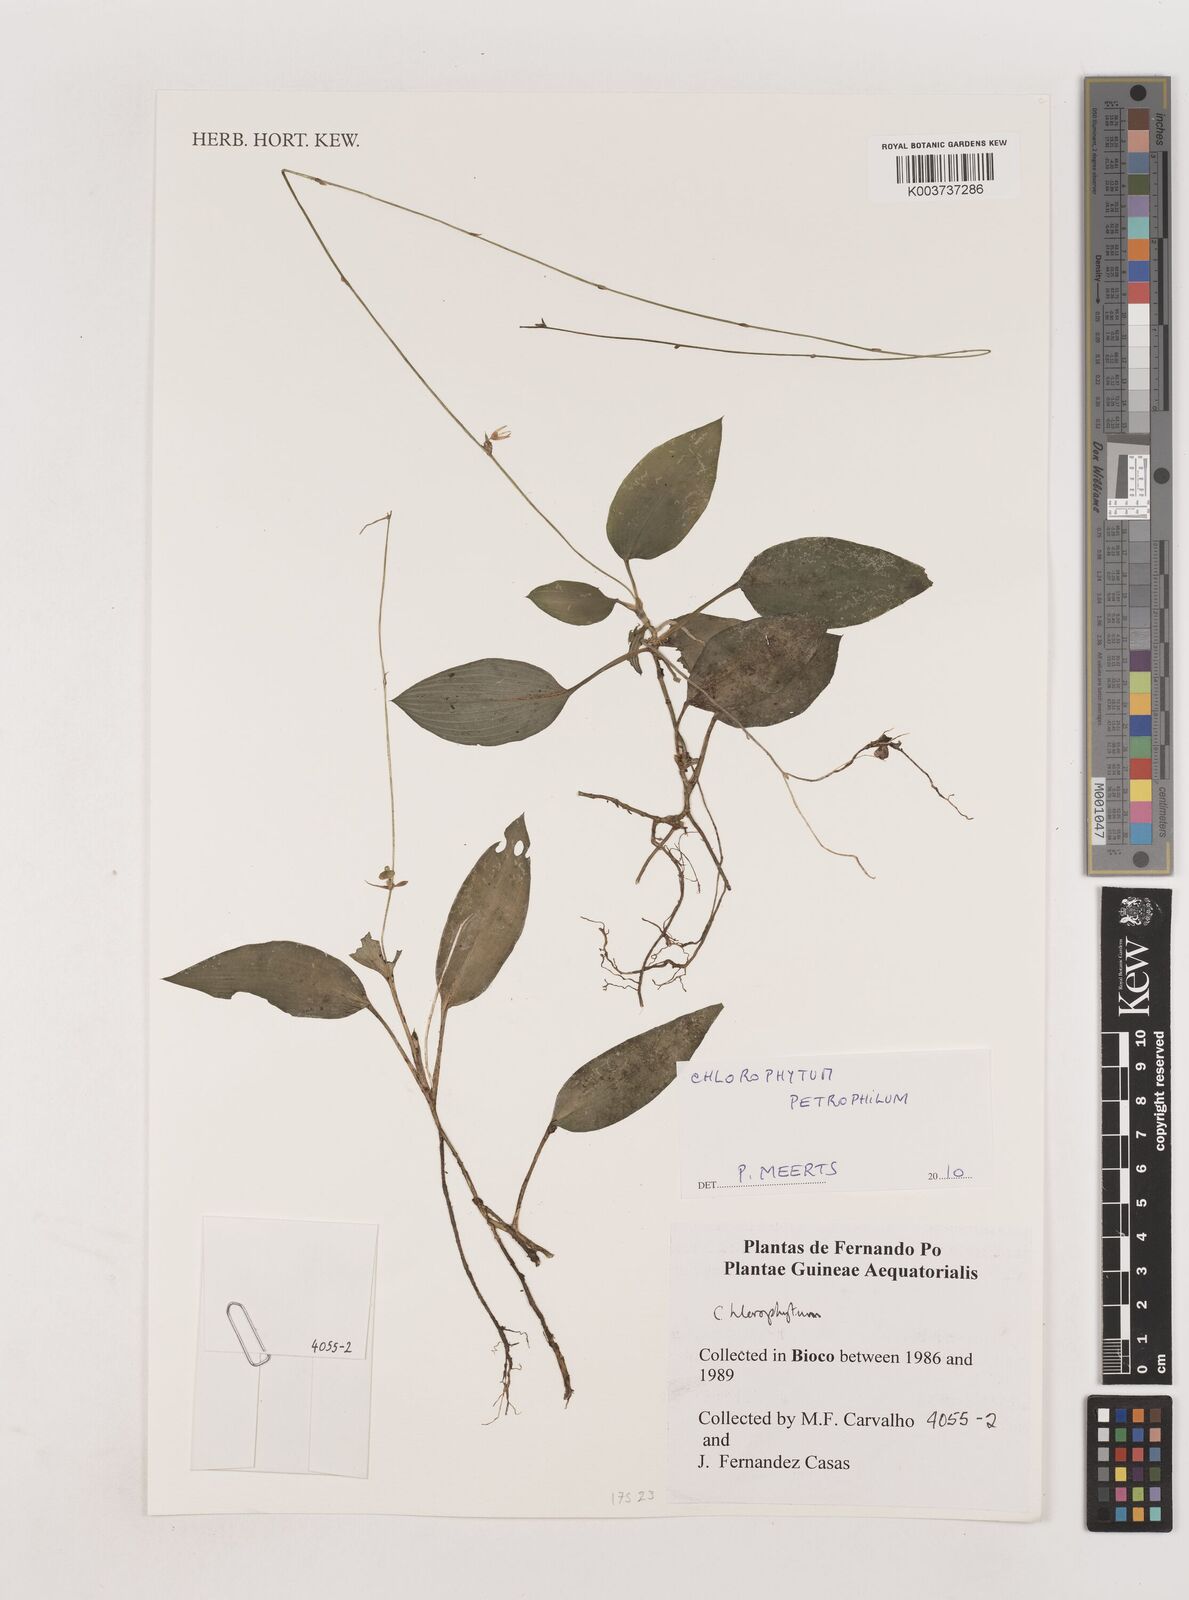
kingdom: Plantae
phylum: Tracheophyta
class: Liliopsida
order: Asparagales
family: Asparagaceae
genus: Chlorophytum
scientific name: Chlorophytum petrophilum
